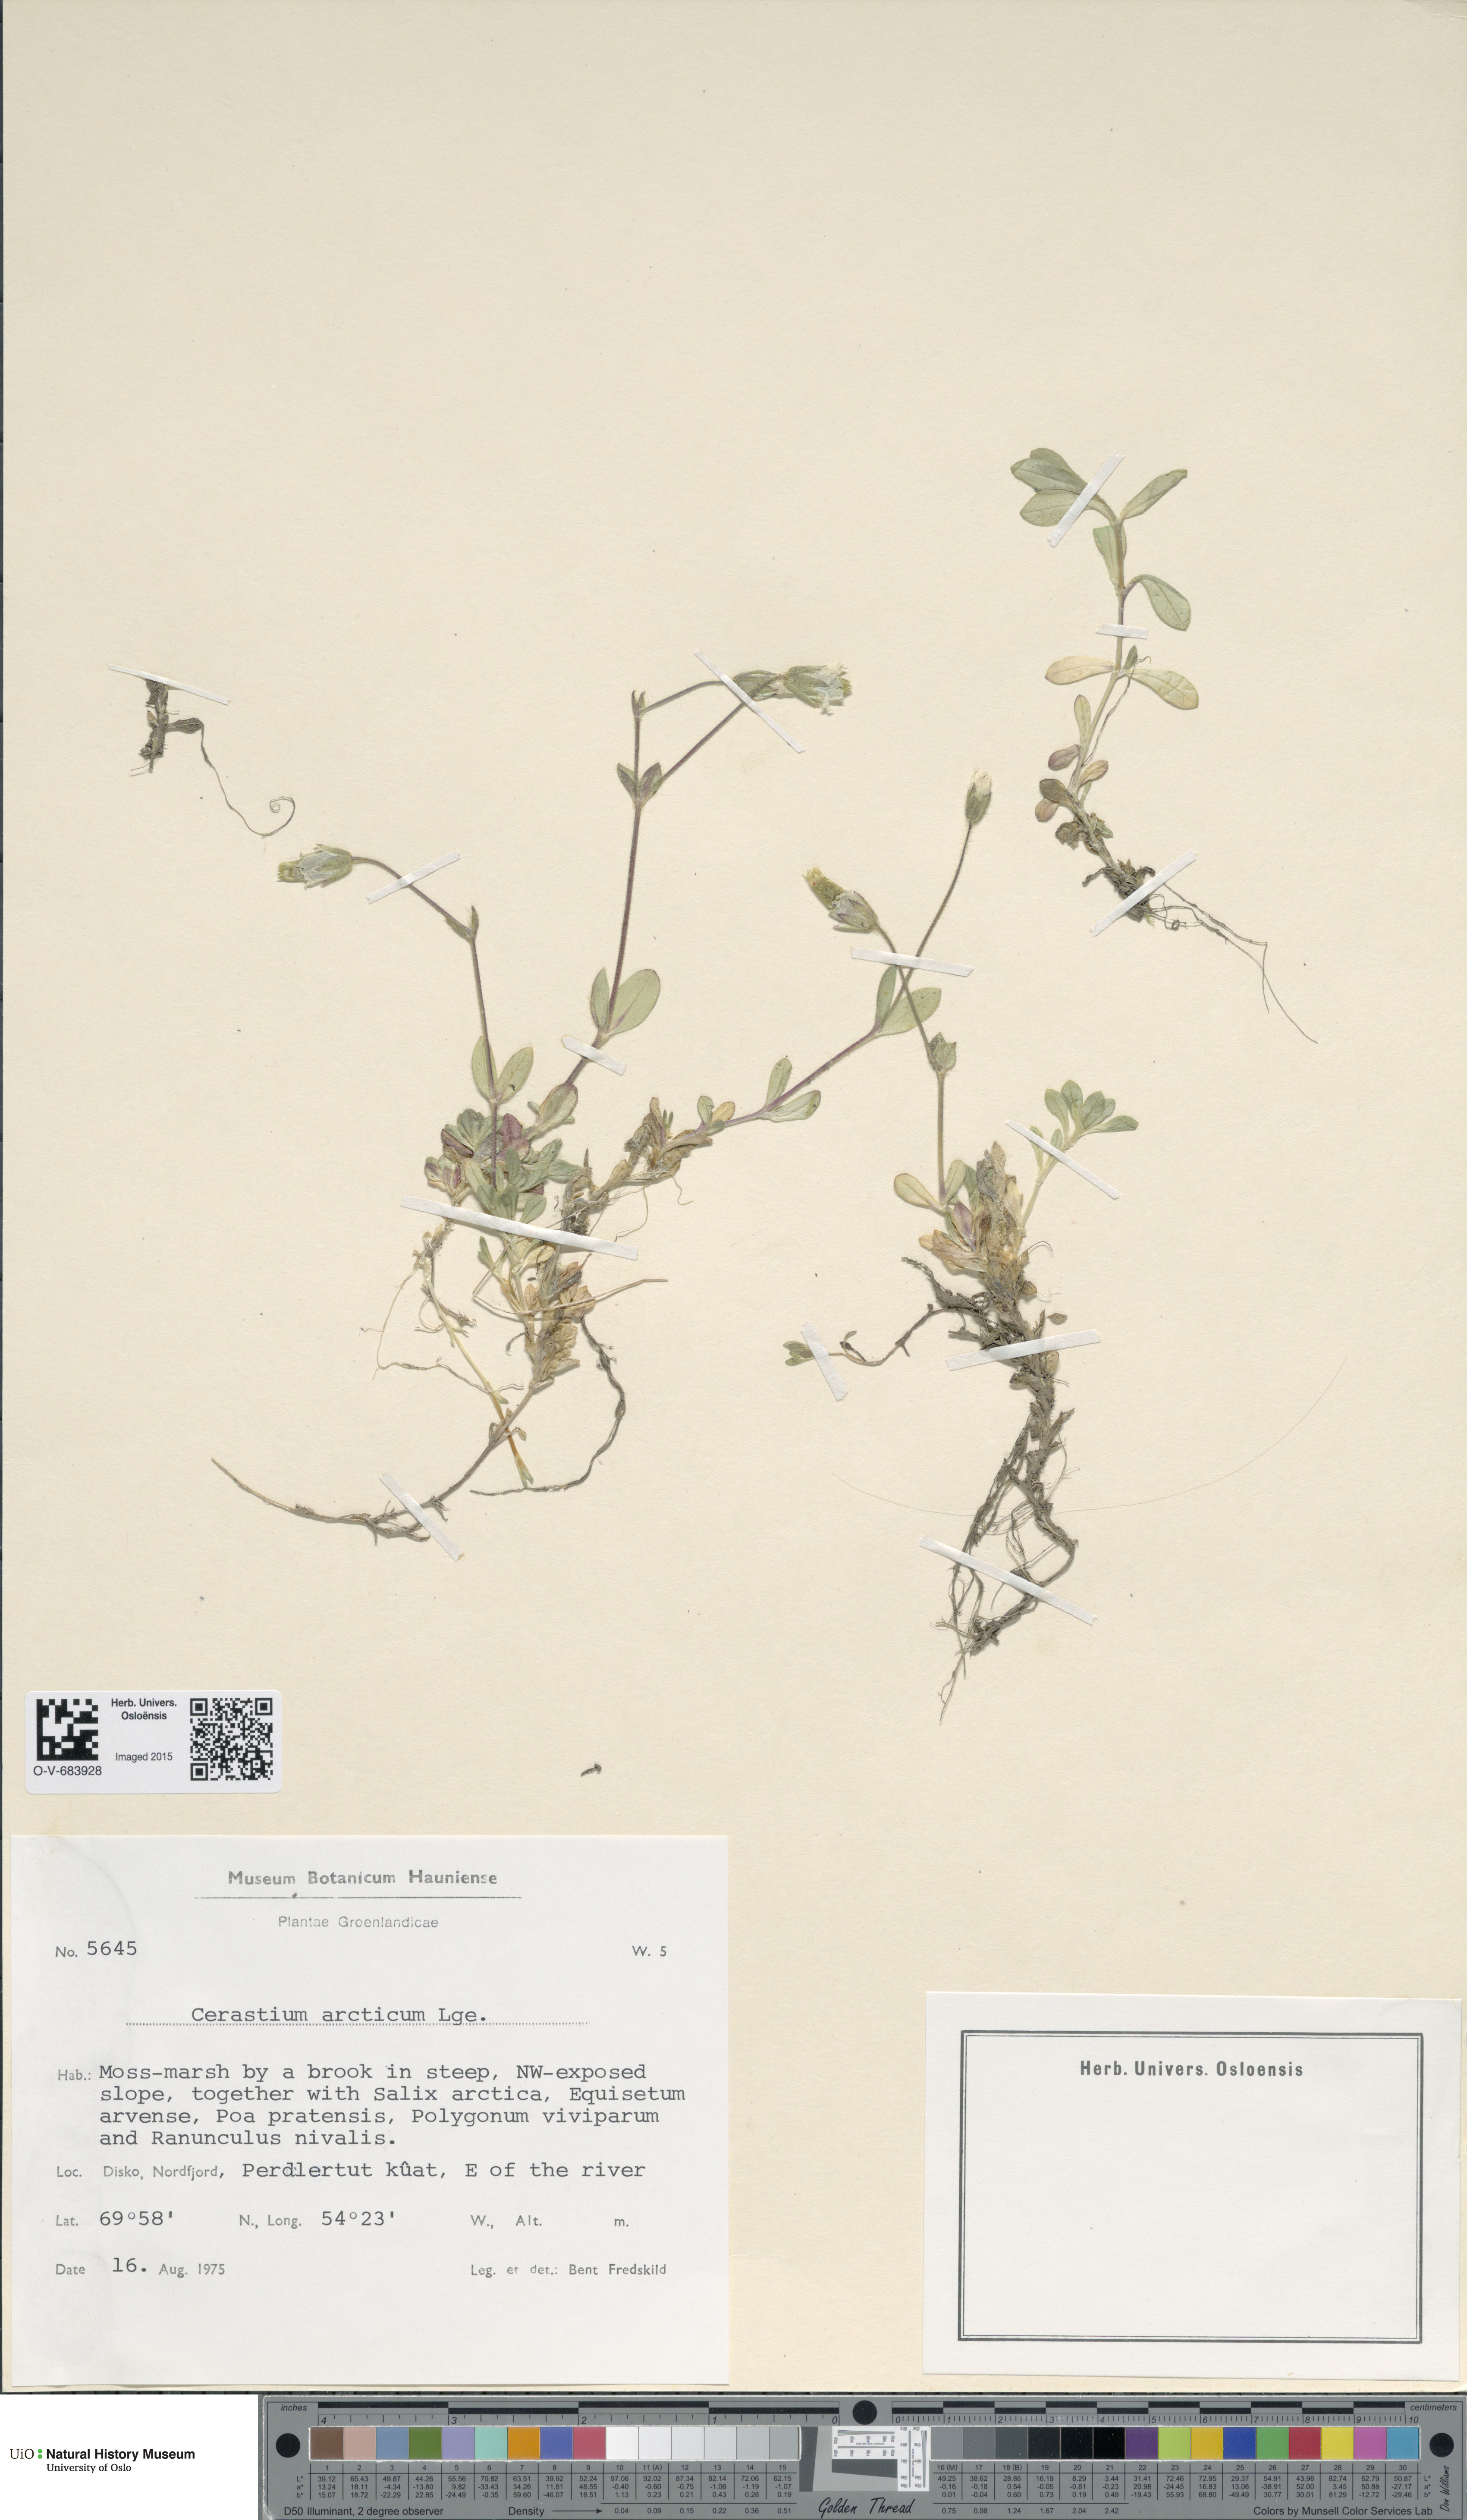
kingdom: Plantae
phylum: Tracheophyta
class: Magnoliopsida
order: Caryophyllales
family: Caryophyllaceae
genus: Cerastium
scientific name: Cerastium arcticum
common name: Arctic mouse-ear
